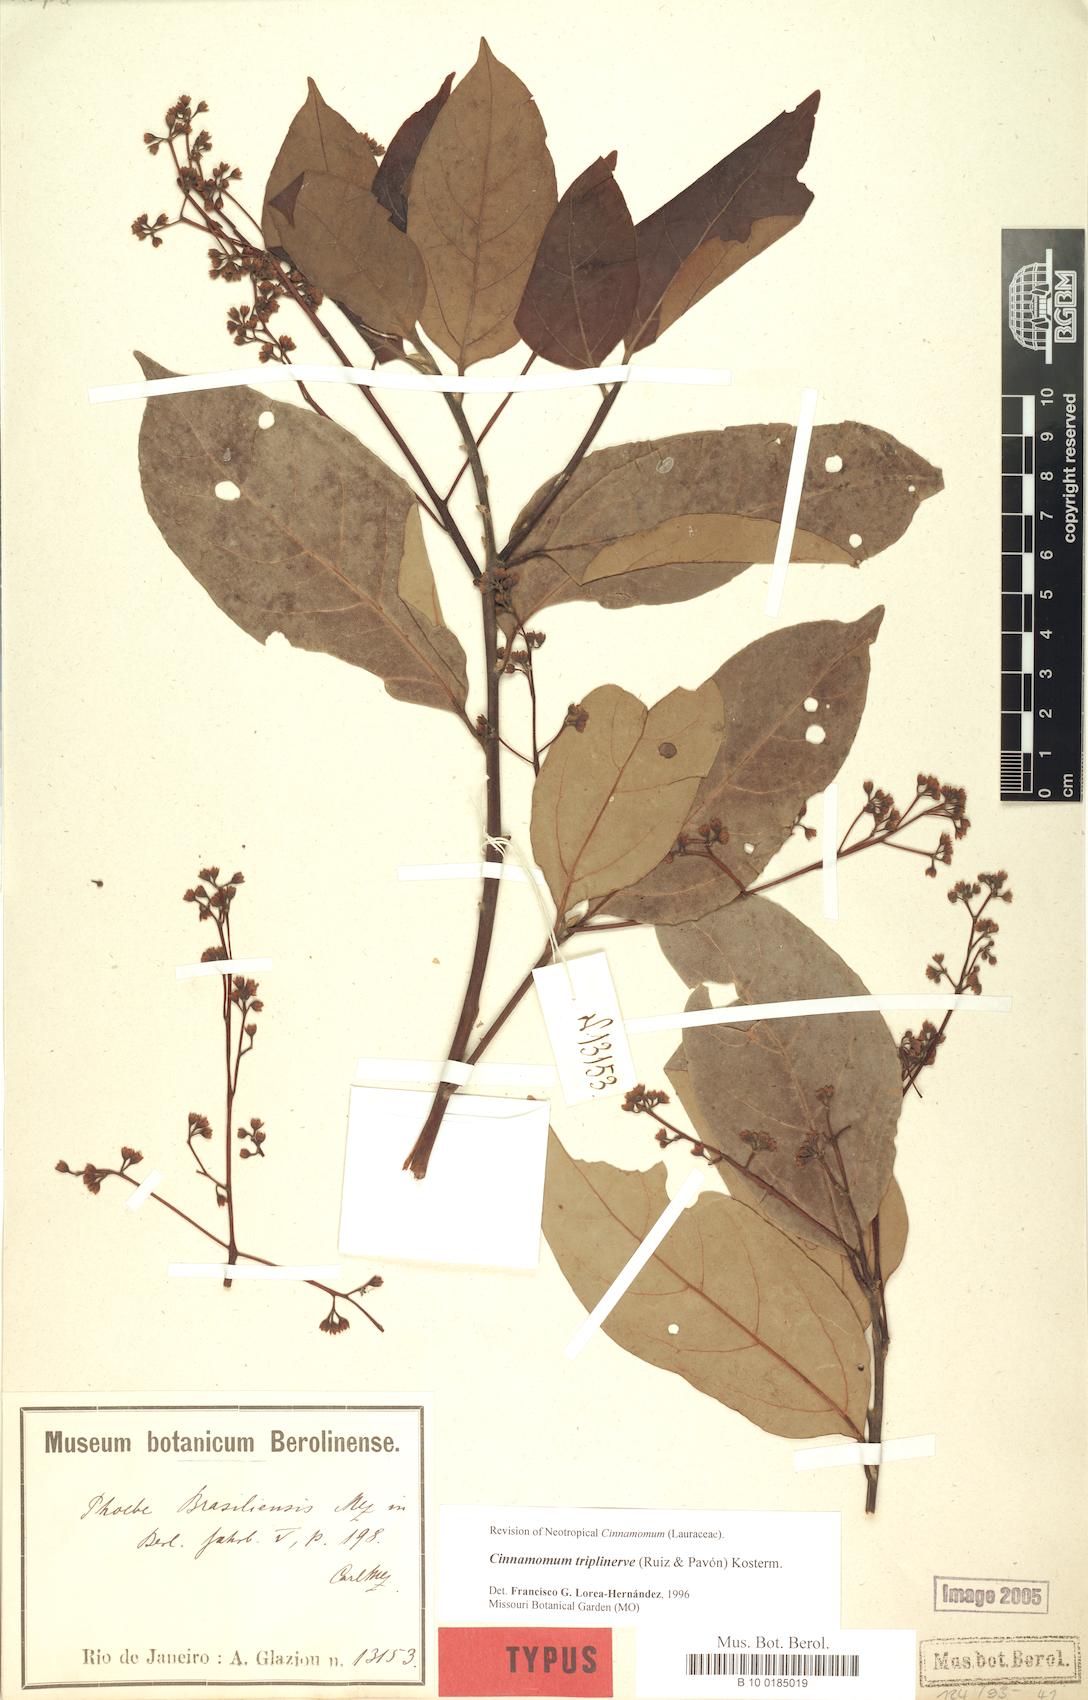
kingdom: Plantae
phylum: Tracheophyta
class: Magnoliopsida
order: Laurales
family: Lauraceae
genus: Aiouea
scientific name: Aiouea montana
